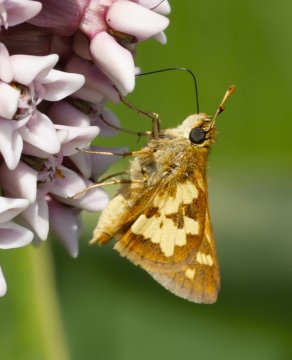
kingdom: Animalia
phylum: Arthropoda
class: Insecta
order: Lepidoptera
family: Hesperiidae
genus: Polites
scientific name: Polites coras
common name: Peck's Skipper
